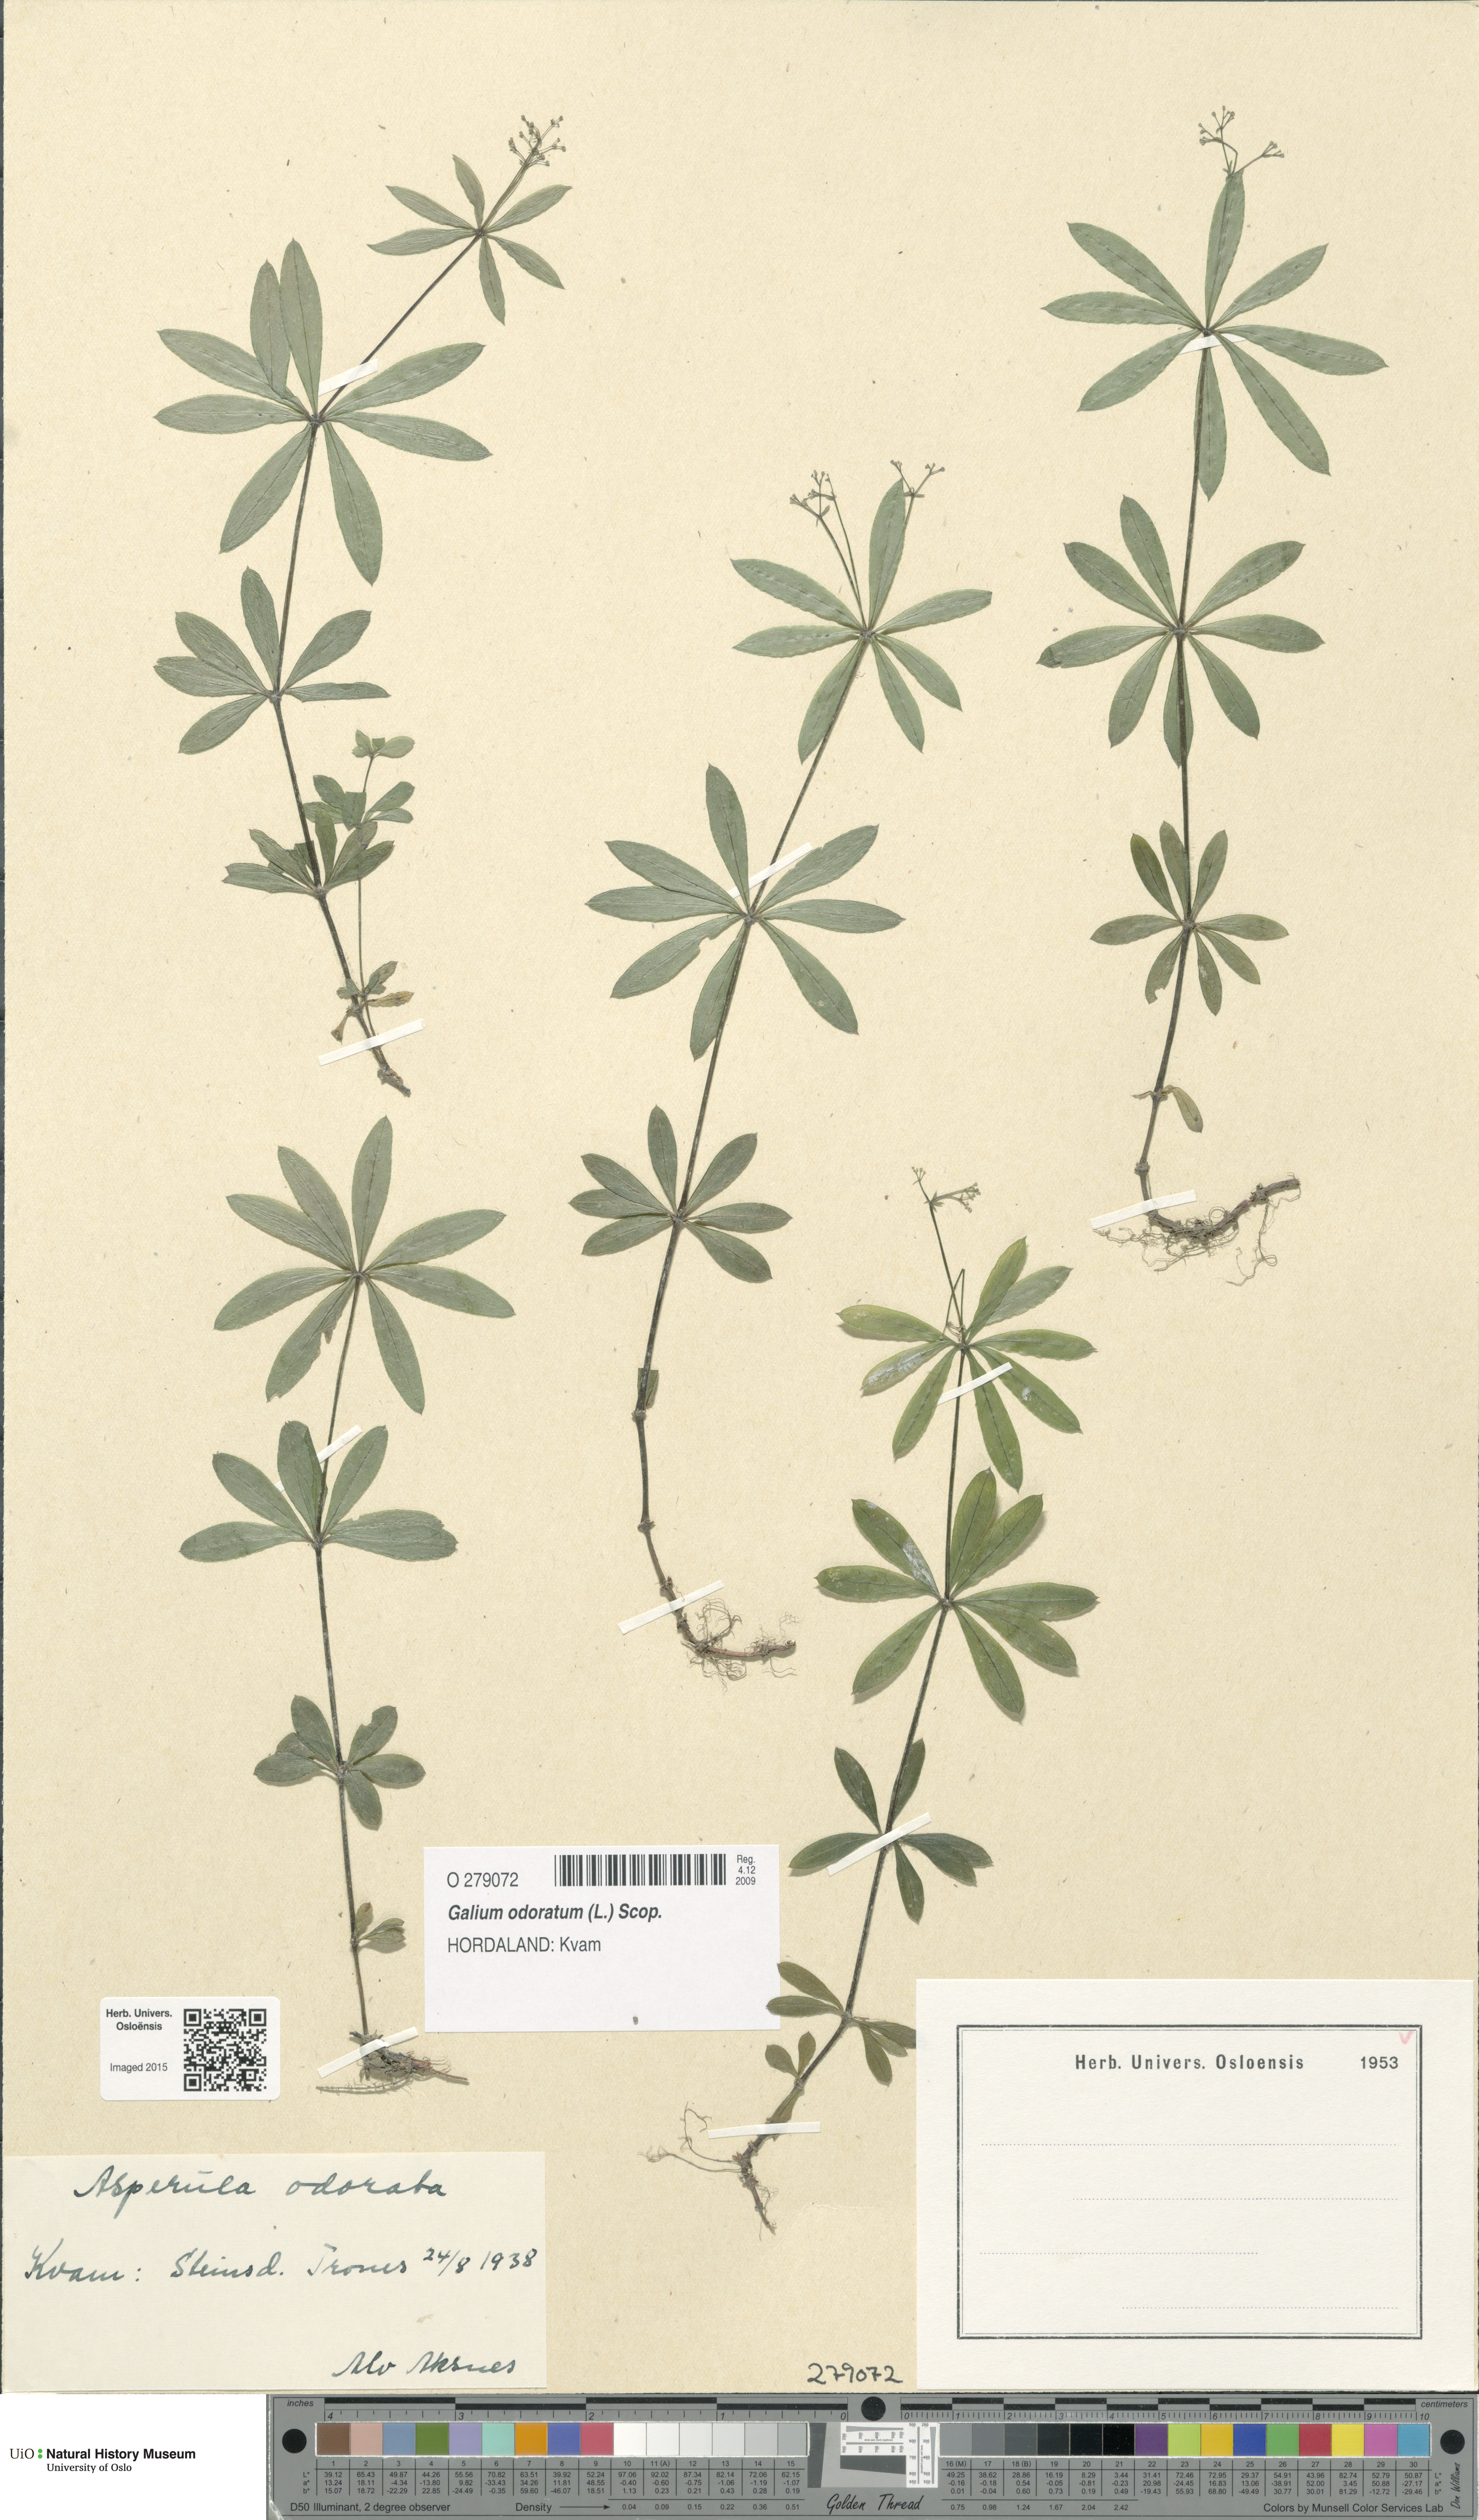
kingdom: Plantae
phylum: Tracheophyta
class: Magnoliopsida
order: Gentianales
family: Rubiaceae
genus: Galium
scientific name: Galium odoratum
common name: Sweet woodruff
